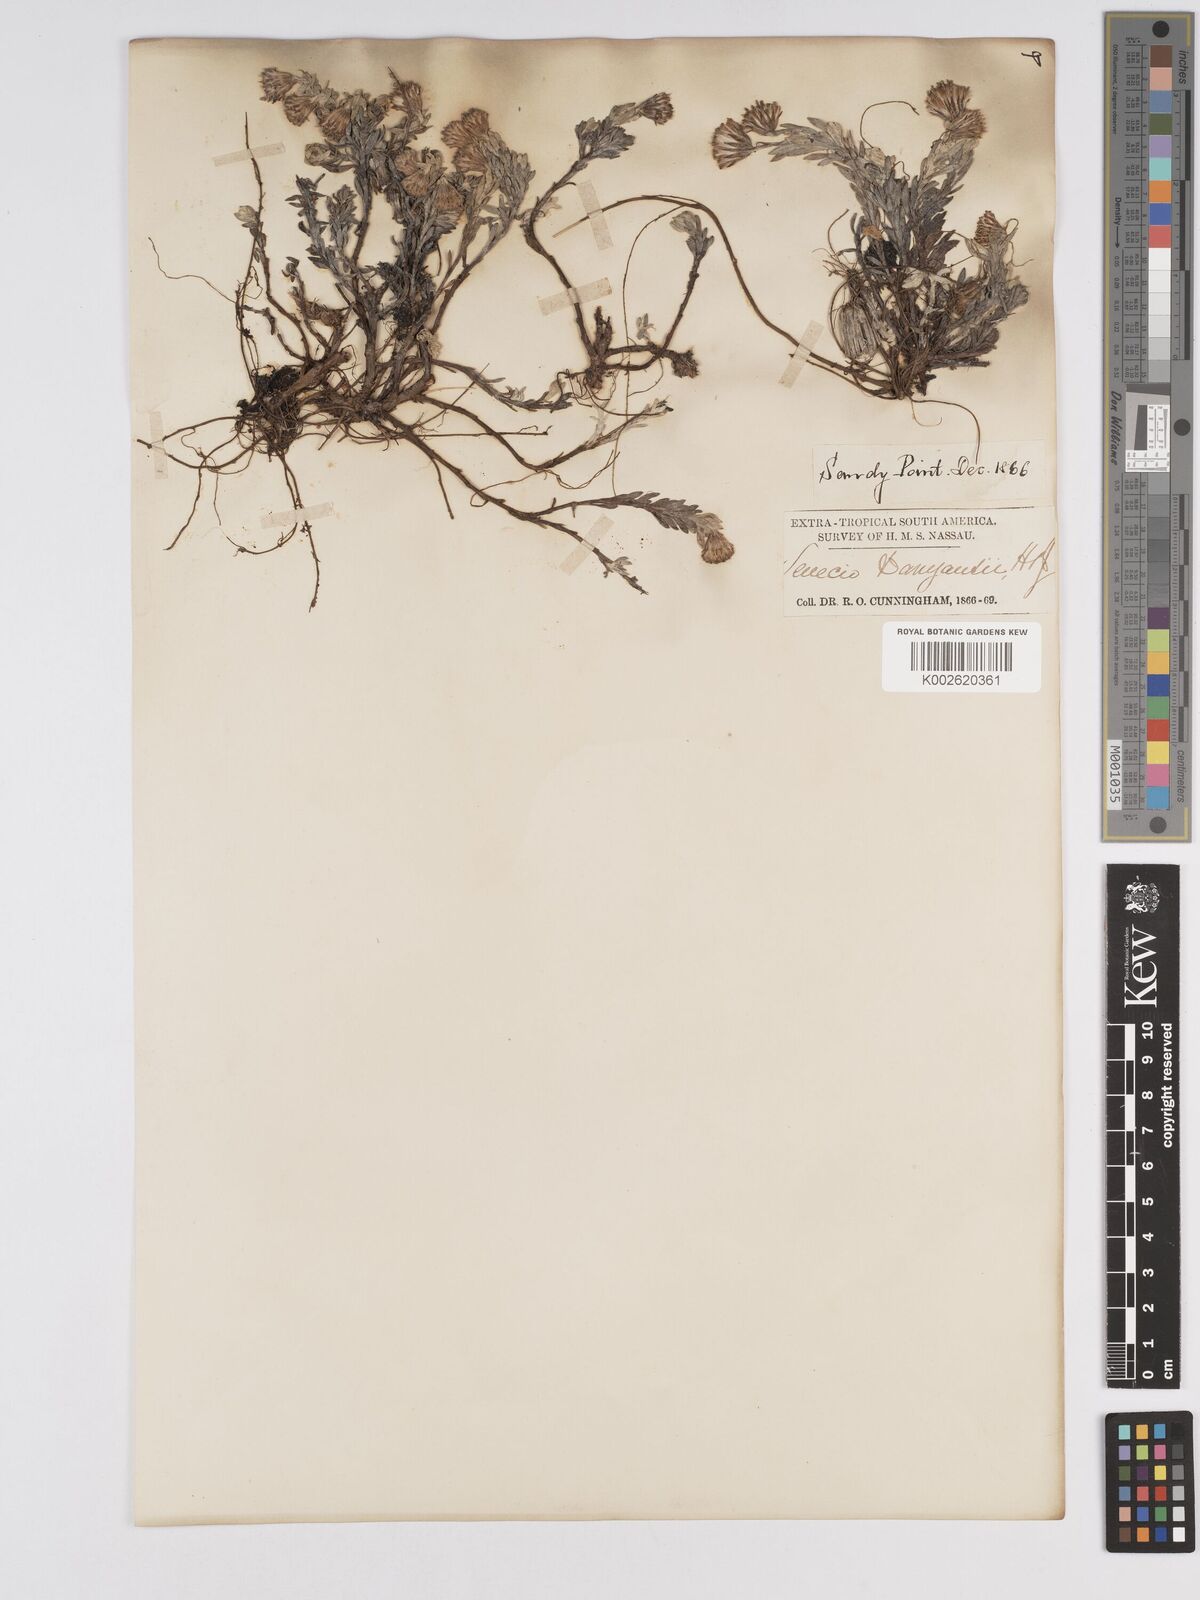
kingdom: Plantae
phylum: Tracheophyta
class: Magnoliopsida
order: Asterales
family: Asteraceae
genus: Senecio
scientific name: Senecio patagonicus
